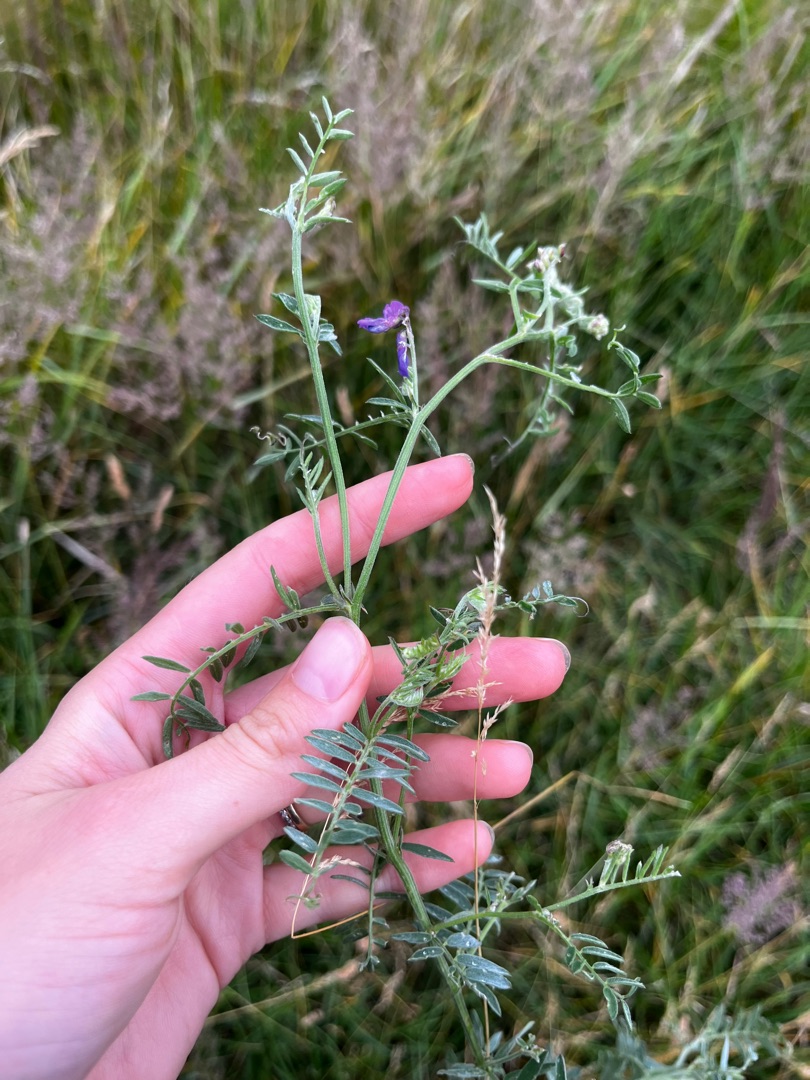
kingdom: Plantae
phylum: Tracheophyta
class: Magnoliopsida
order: Fabales
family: Fabaceae
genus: Vicia
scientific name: Vicia cracca
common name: Muse-vikke
